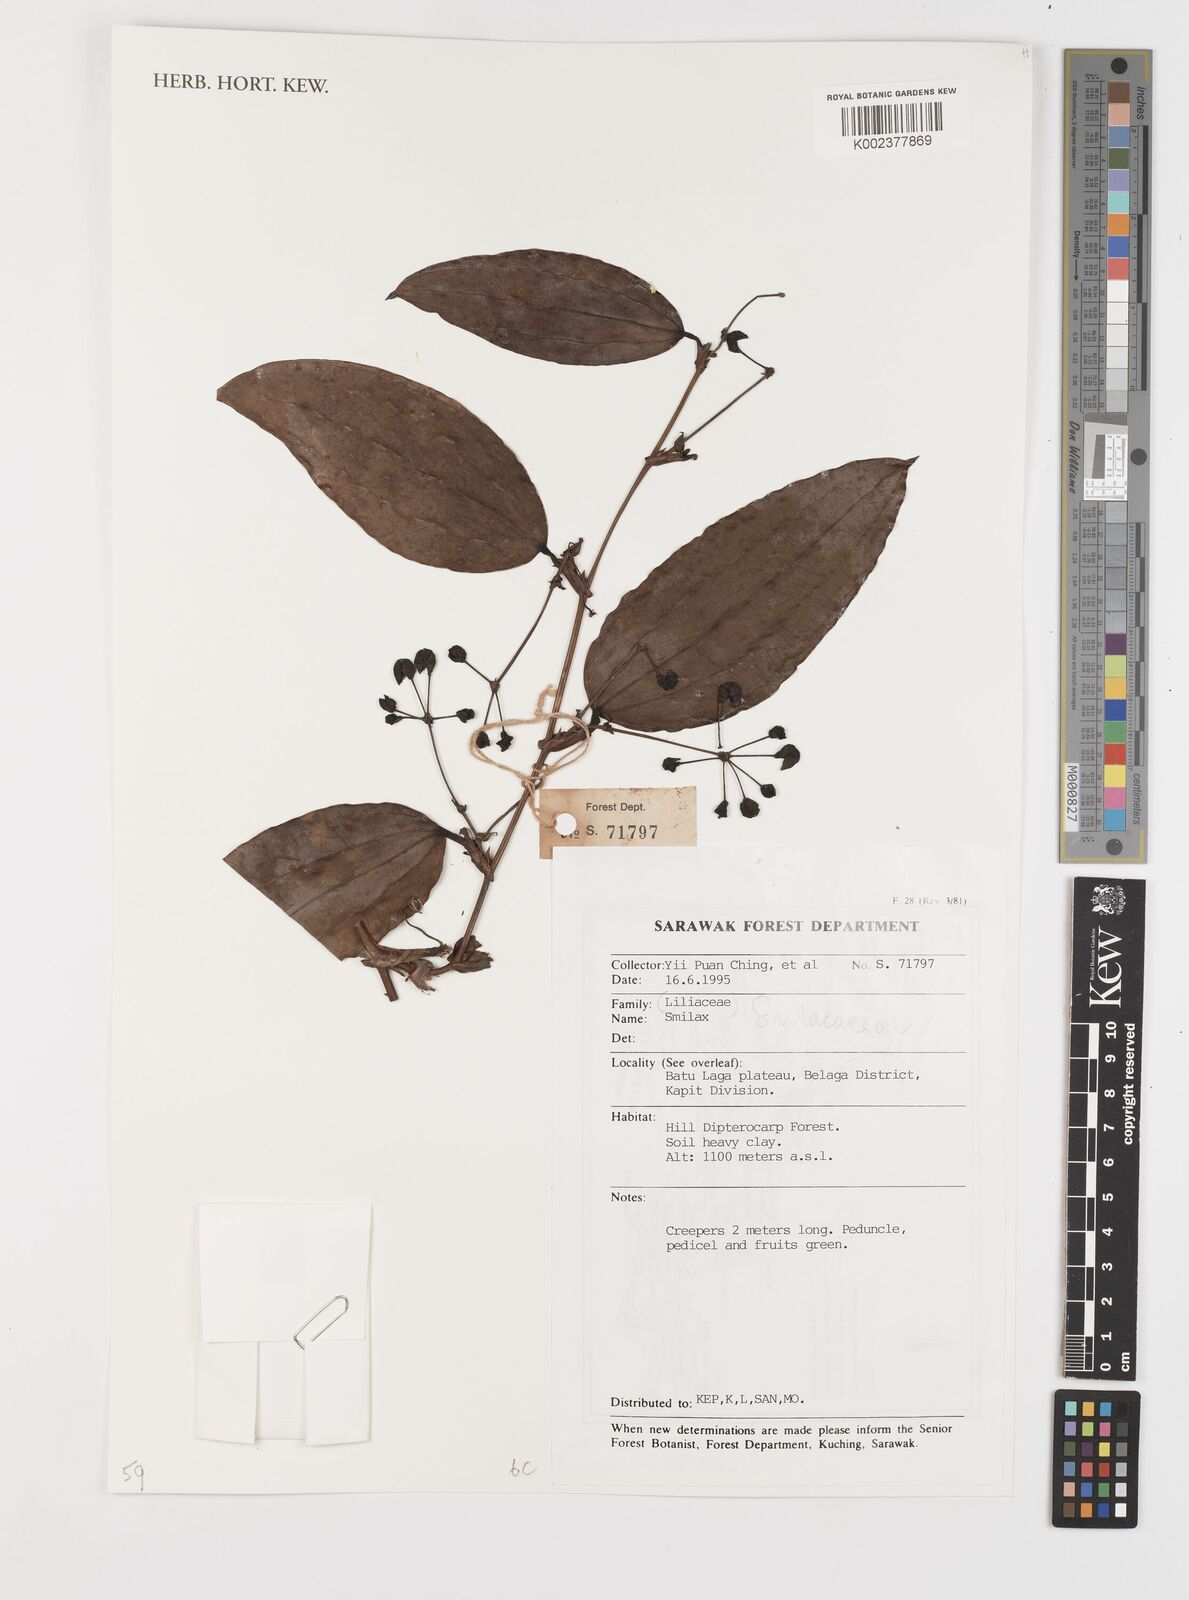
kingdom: Plantae
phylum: Tracheophyta
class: Liliopsida
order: Liliales
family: Smilacaceae
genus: Smilax
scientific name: Smilax
